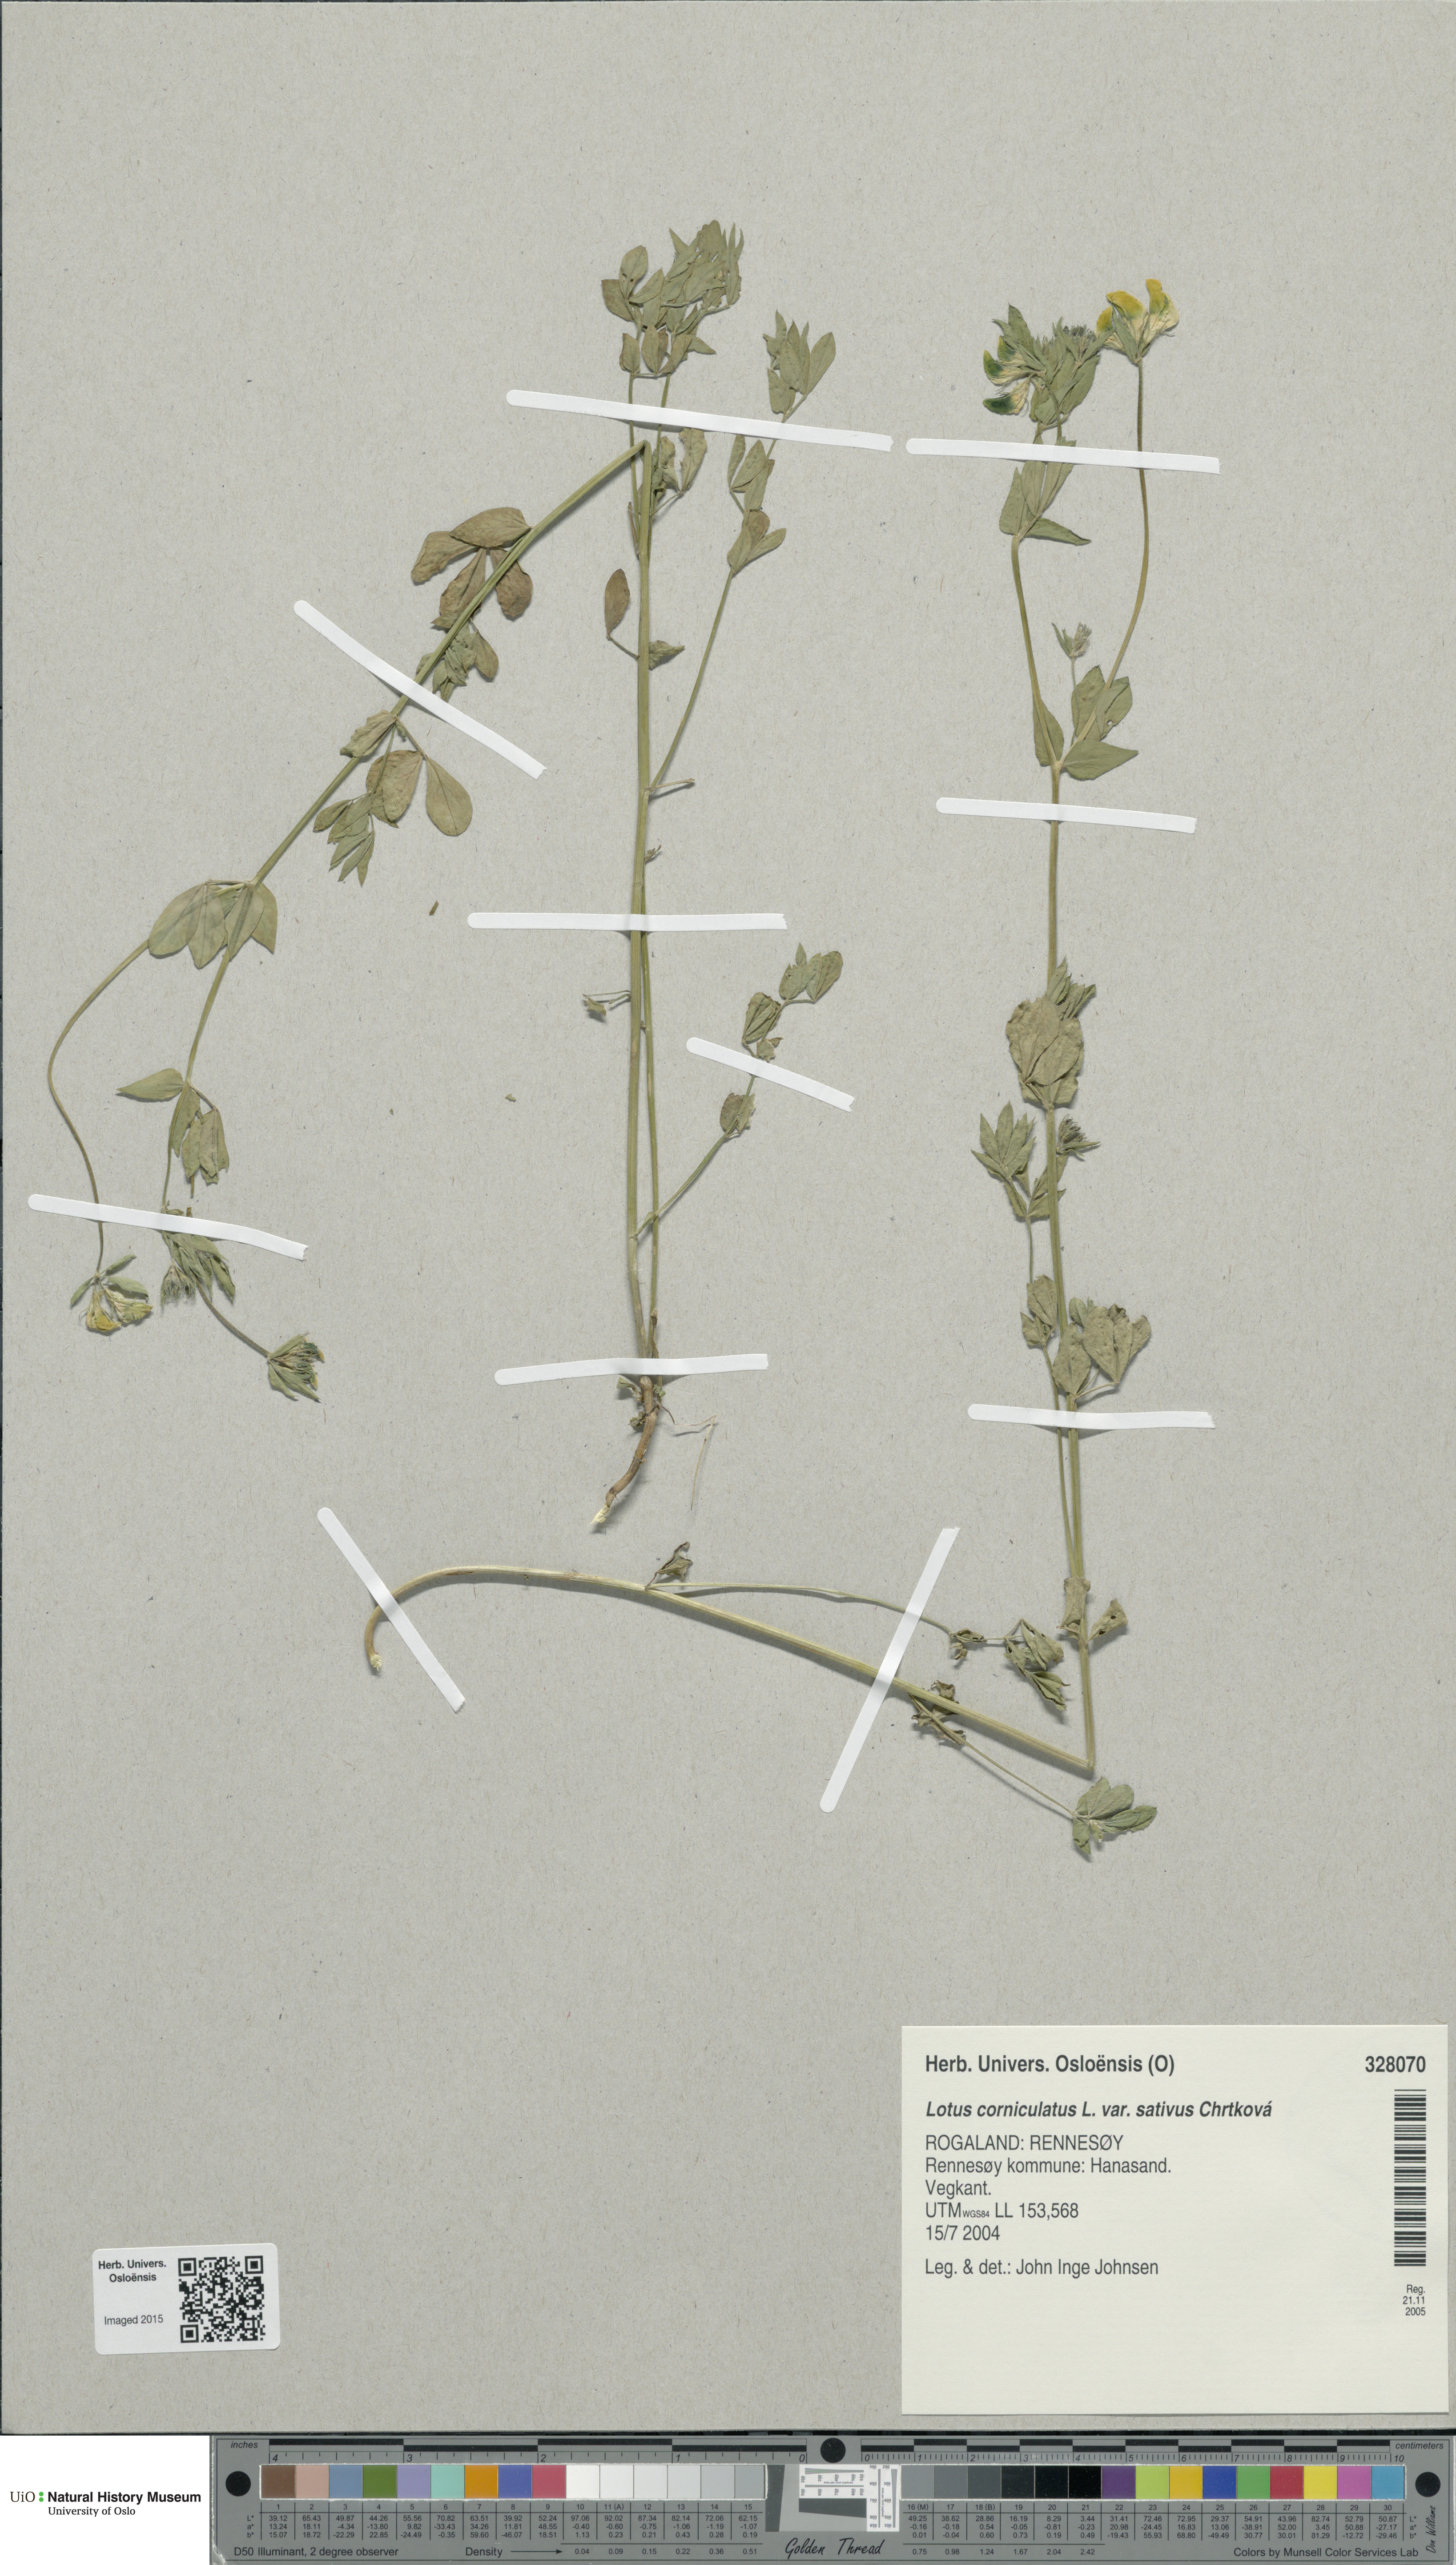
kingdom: Plantae
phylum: Tracheophyta
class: Magnoliopsida
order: Fabales
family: Fabaceae
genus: Lotus
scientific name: Lotus corniculatus
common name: Common bird's-foot-trefoil
